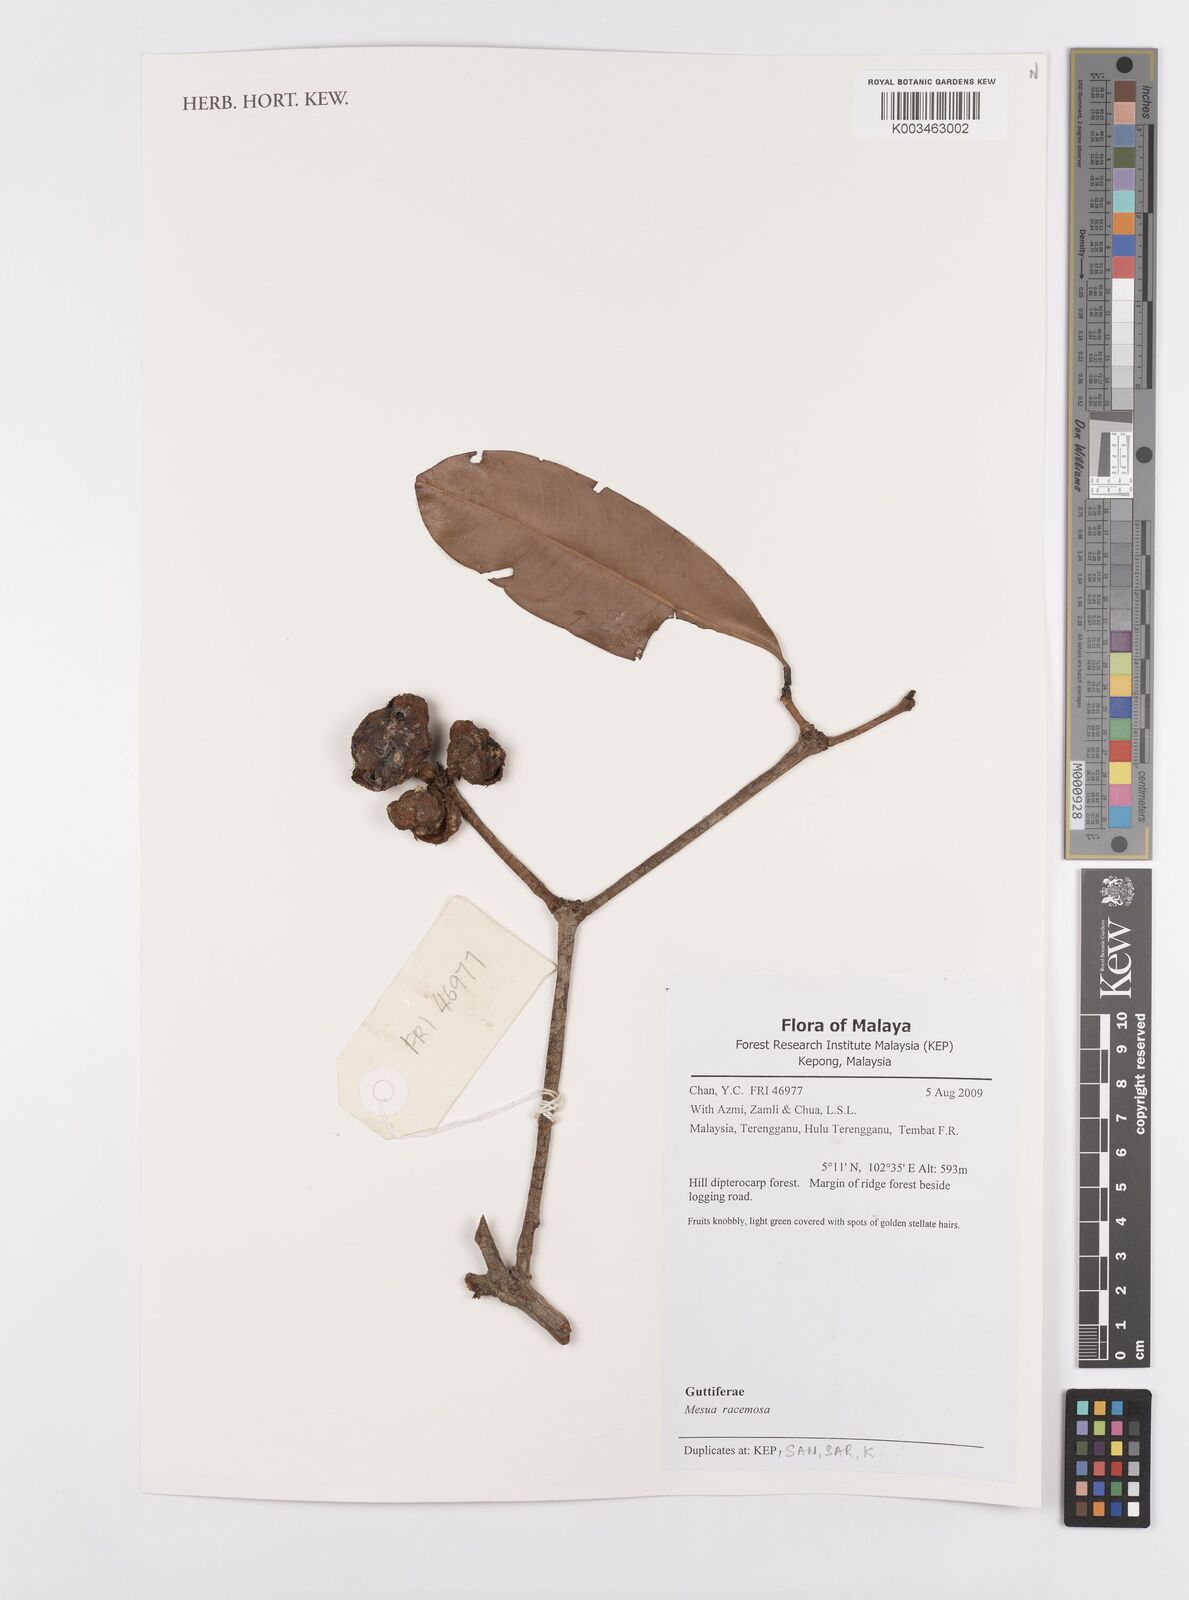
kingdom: Plantae
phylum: Tracheophyta
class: Magnoliopsida
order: Malpighiales
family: Calophyllaceae
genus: Kayea
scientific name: Kayea racemosa
